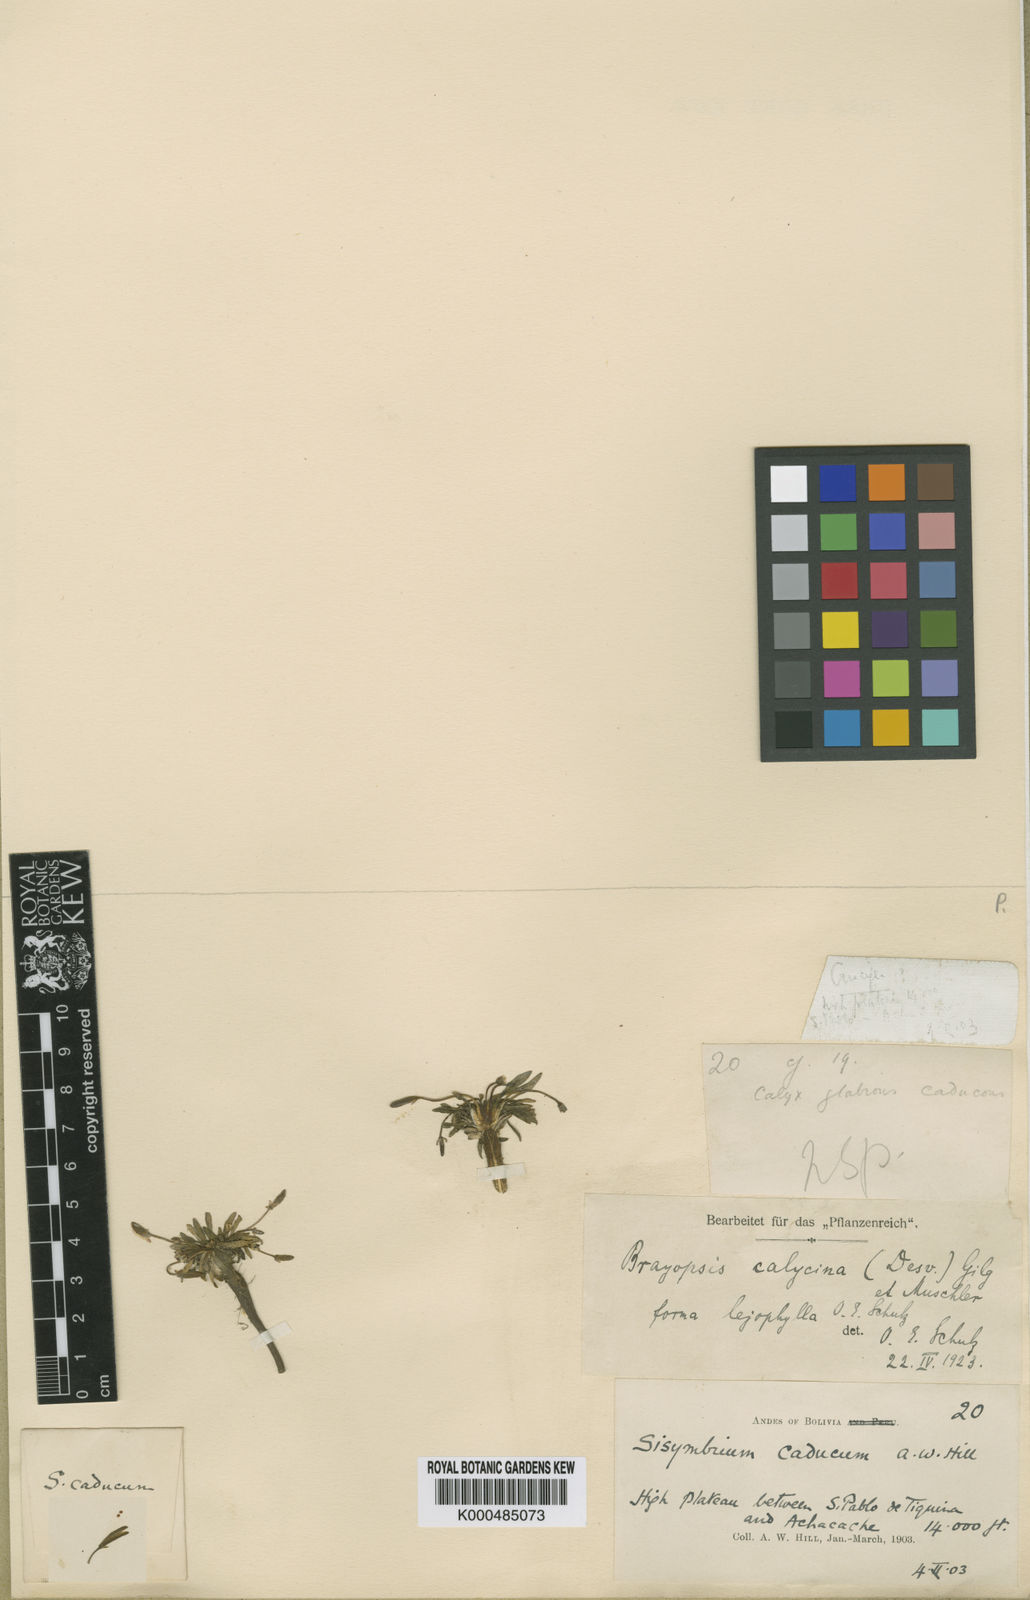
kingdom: Plantae
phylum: Tracheophyta
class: Magnoliopsida
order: Brassicales
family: Brassicaceae
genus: Brayopsis
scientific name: Brayopsis calycina
